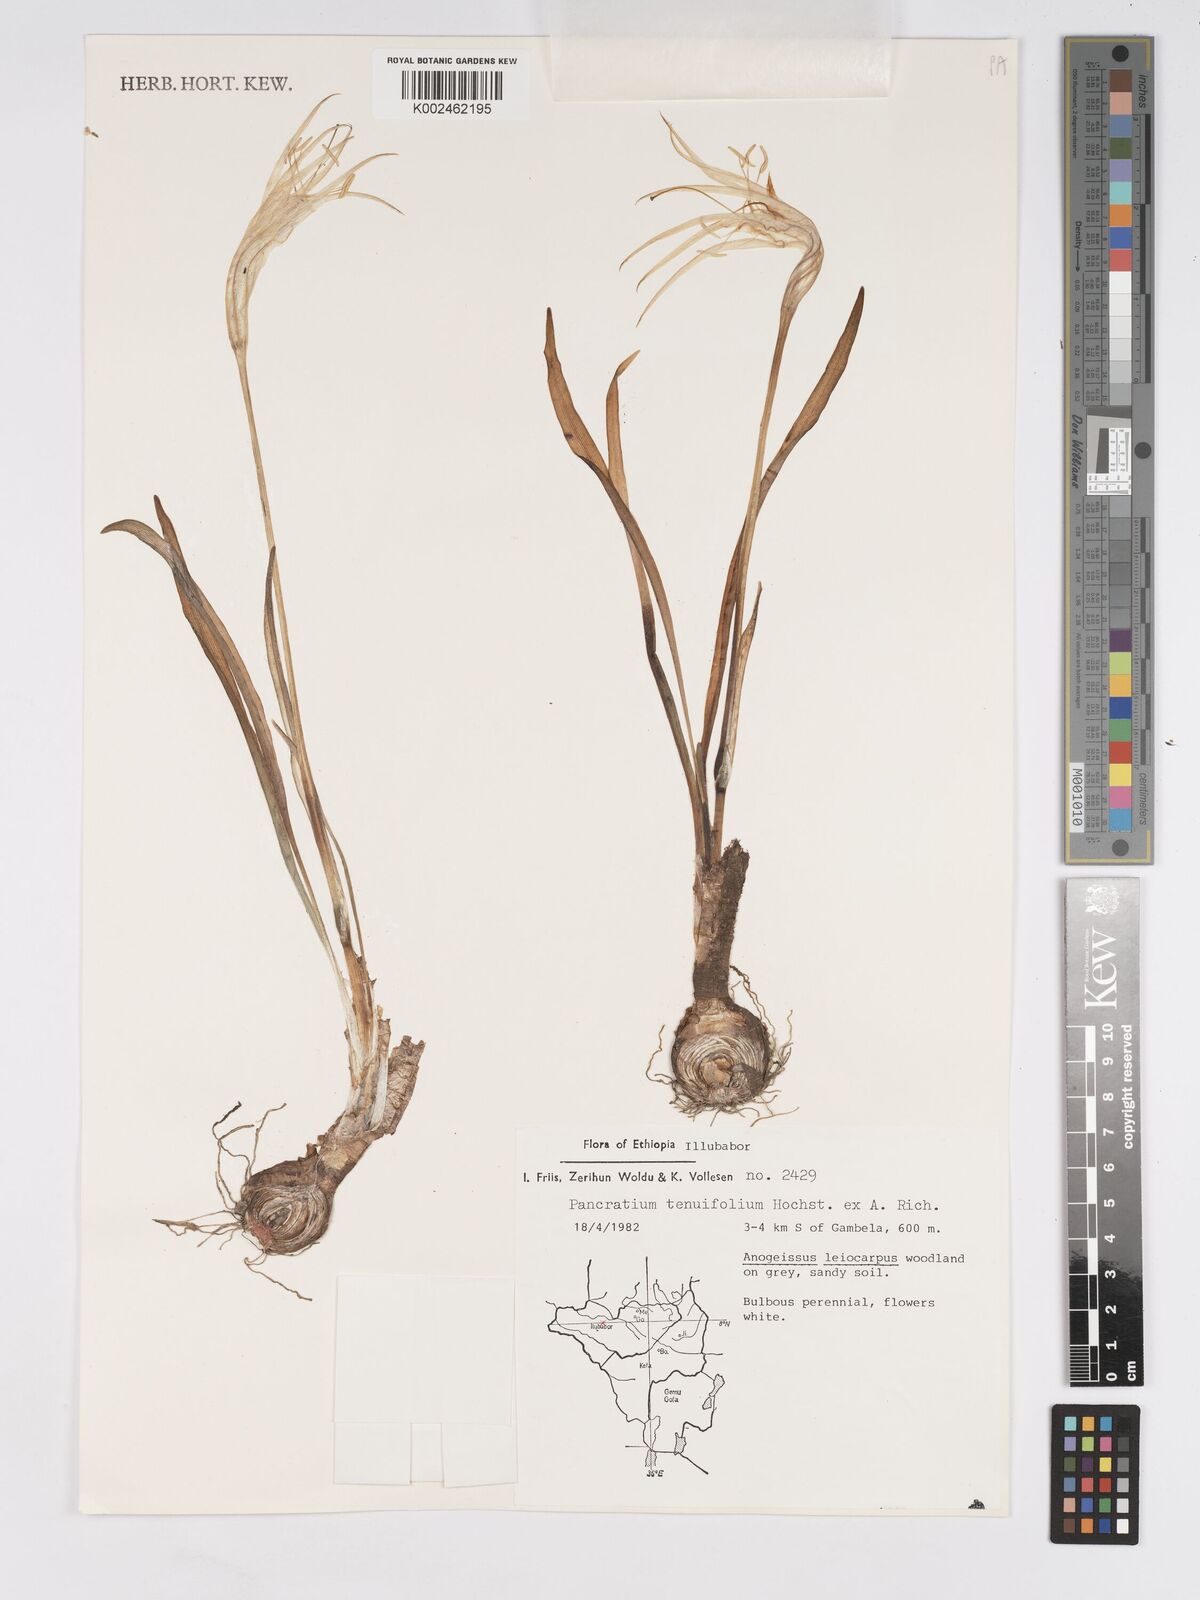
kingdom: Plantae
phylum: Tracheophyta
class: Liliopsida
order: Asparagales
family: Amaryllidaceae
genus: Pancratium
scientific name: Pancratium tenuifolium
